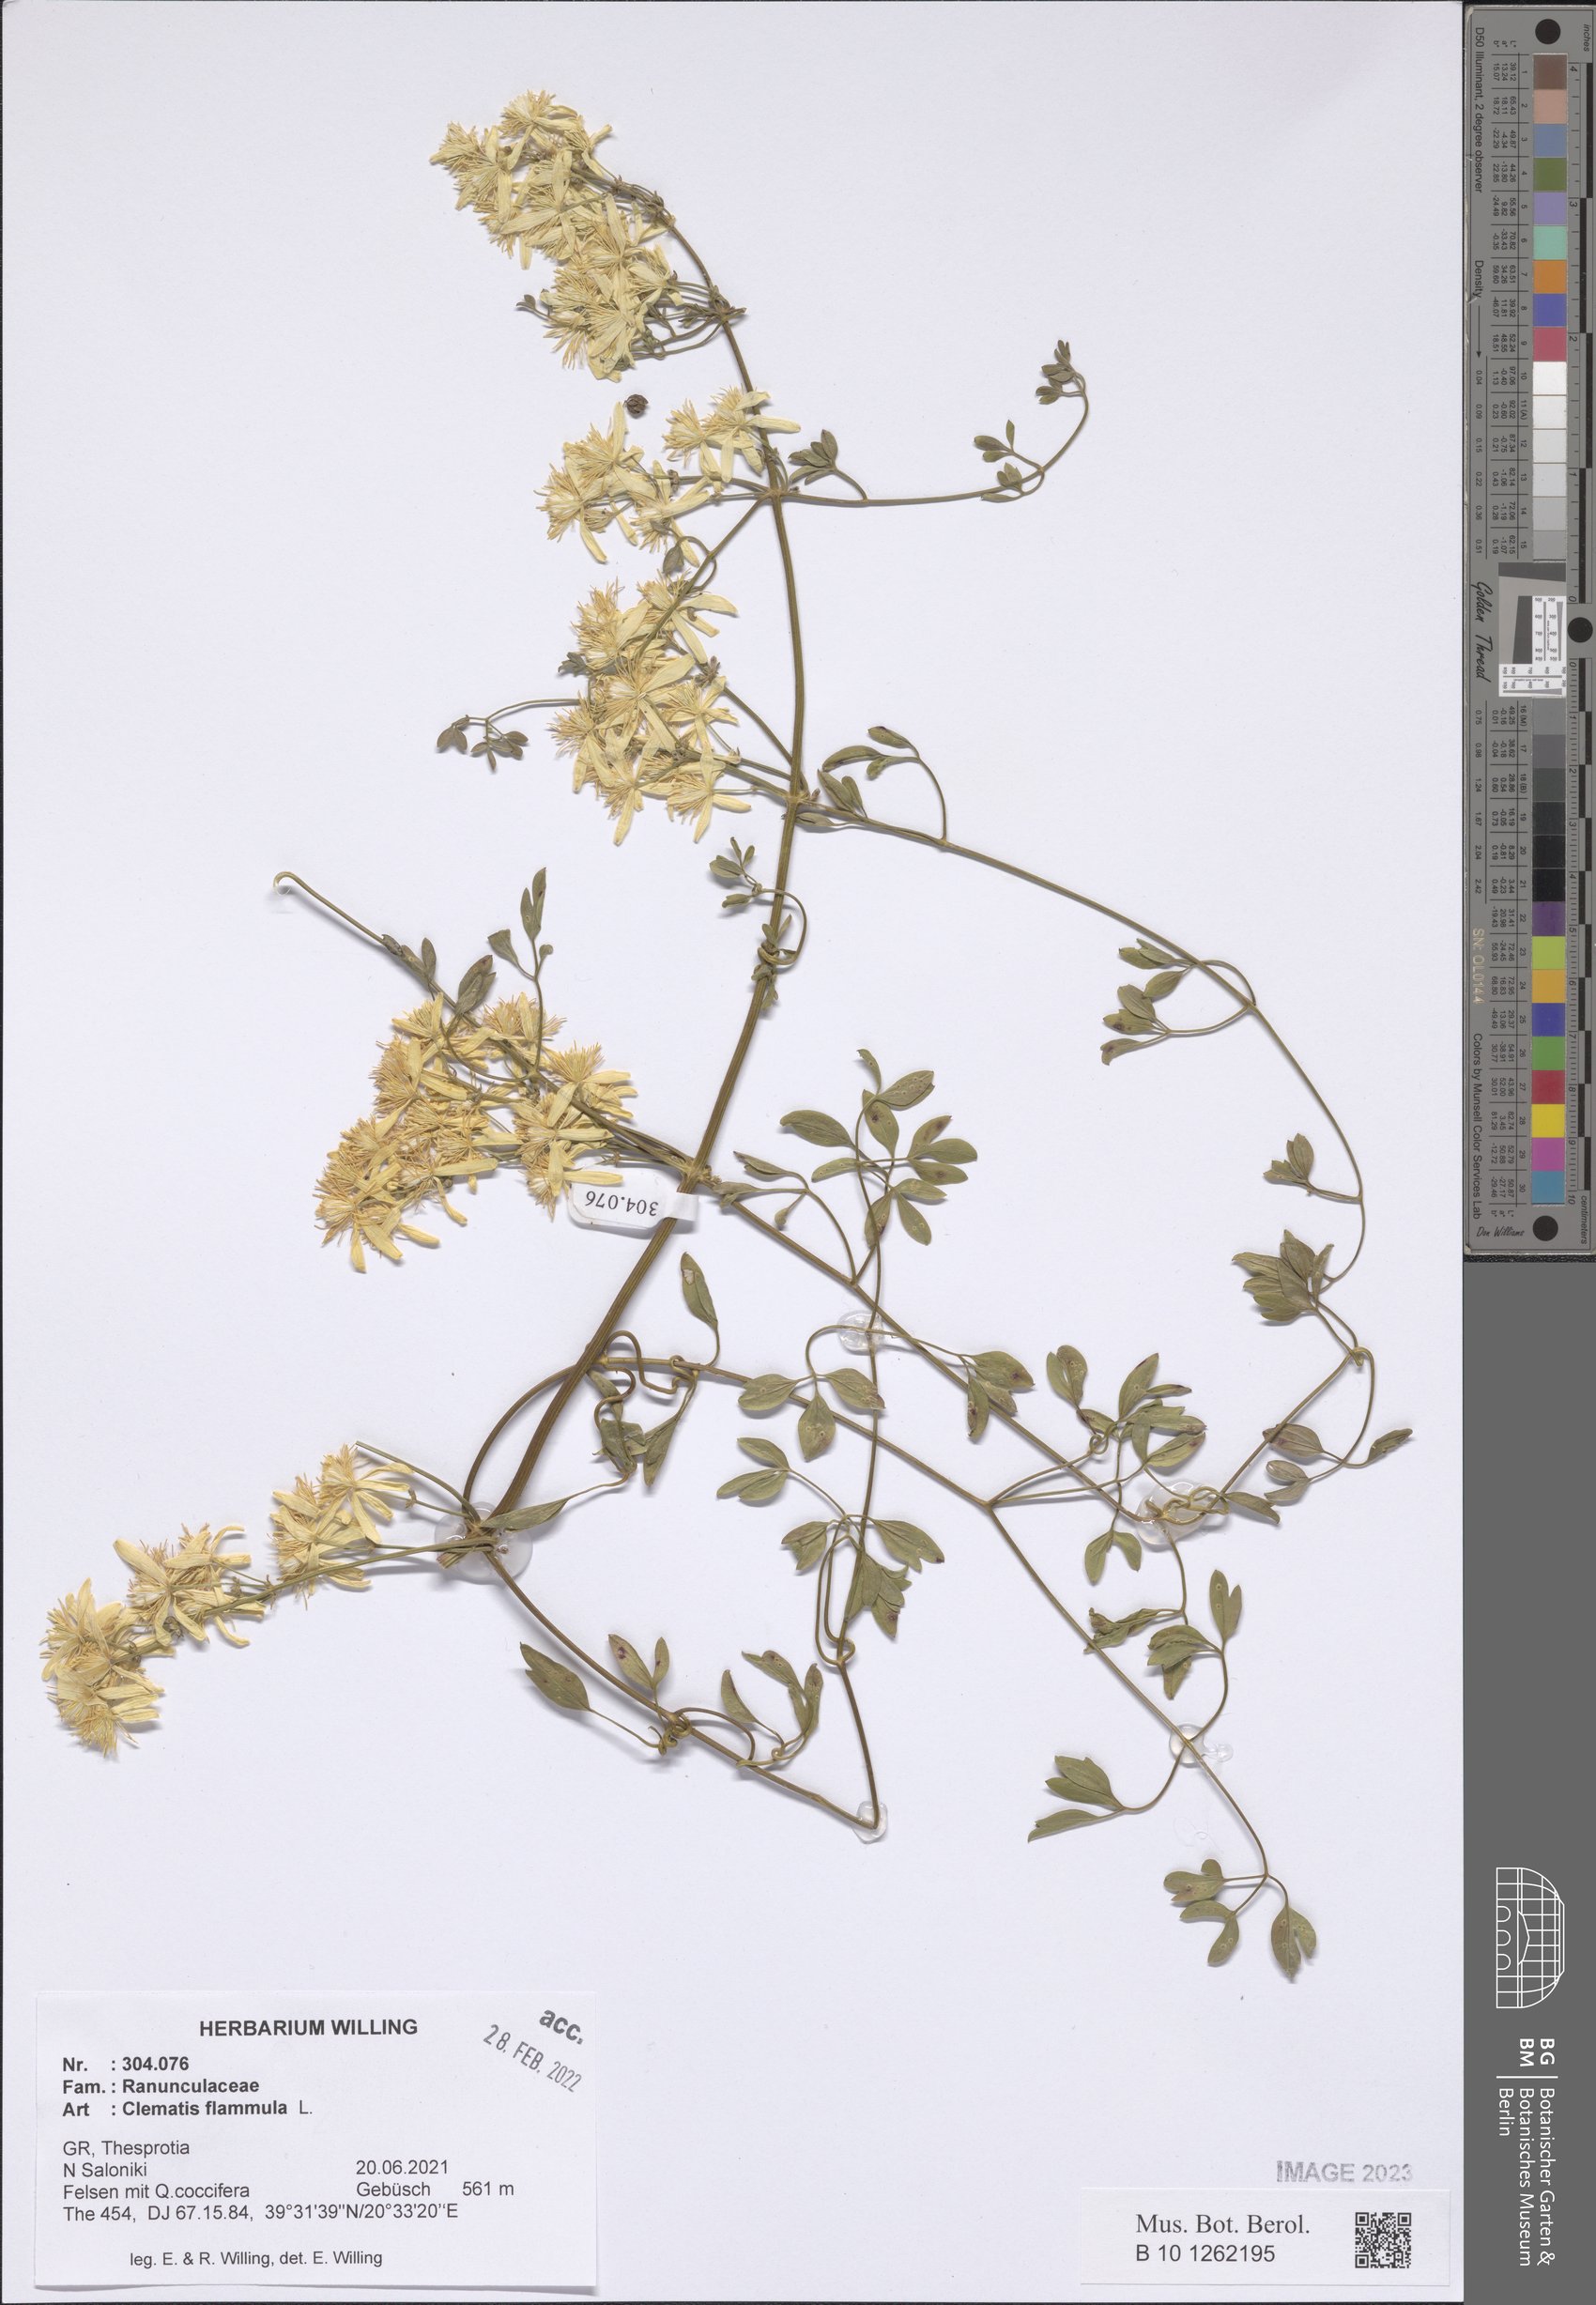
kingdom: Plantae
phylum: Tracheophyta
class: Magnoliopsida
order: Ranunculales
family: Ranunculaceae
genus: Clematis
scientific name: Clematis flammula
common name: Virgin's-bower
